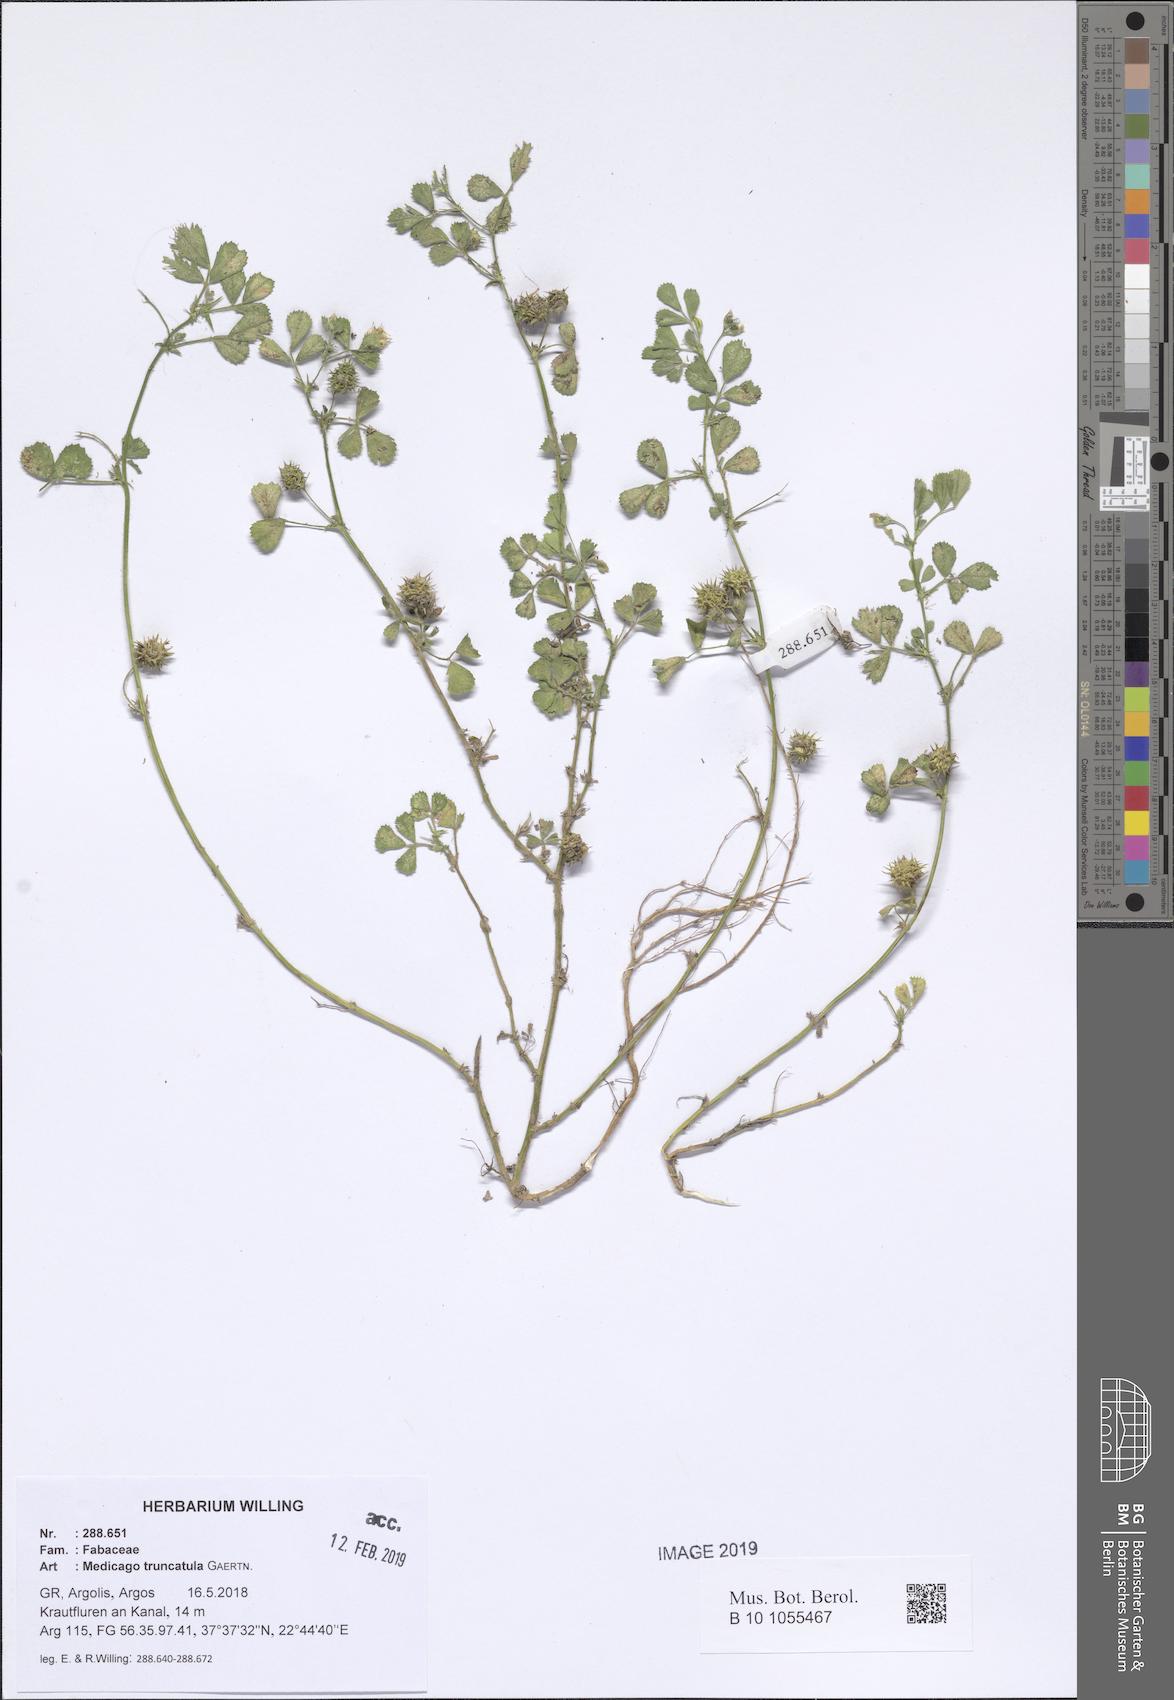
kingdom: Plantae
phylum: Tracheophyta
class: Magnoliopsida
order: Fabales
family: Fabaceae
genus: Medicago
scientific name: Medicago truncatula
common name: Strong-spined medick
